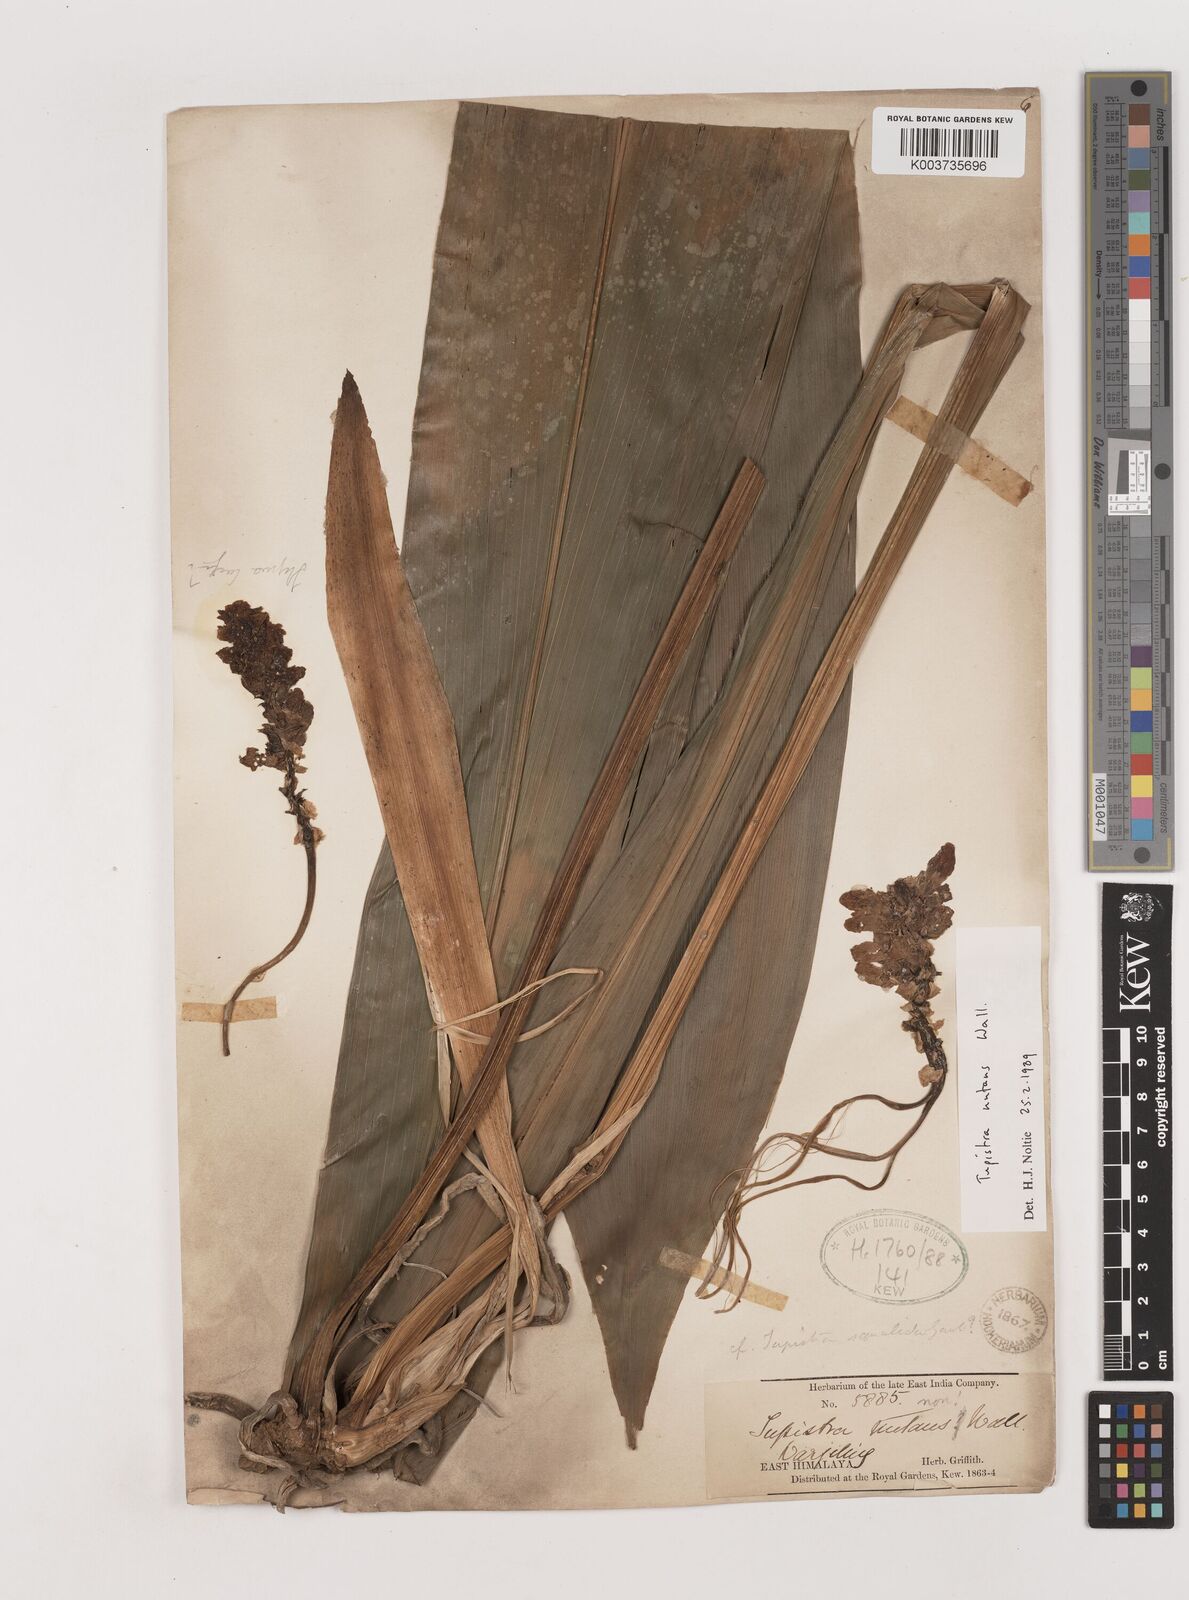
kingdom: Plantae
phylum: Tracheophyta
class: Liliopsida
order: Asparagales
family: Asparagaceae
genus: Tupistra
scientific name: Tupistra nutans
